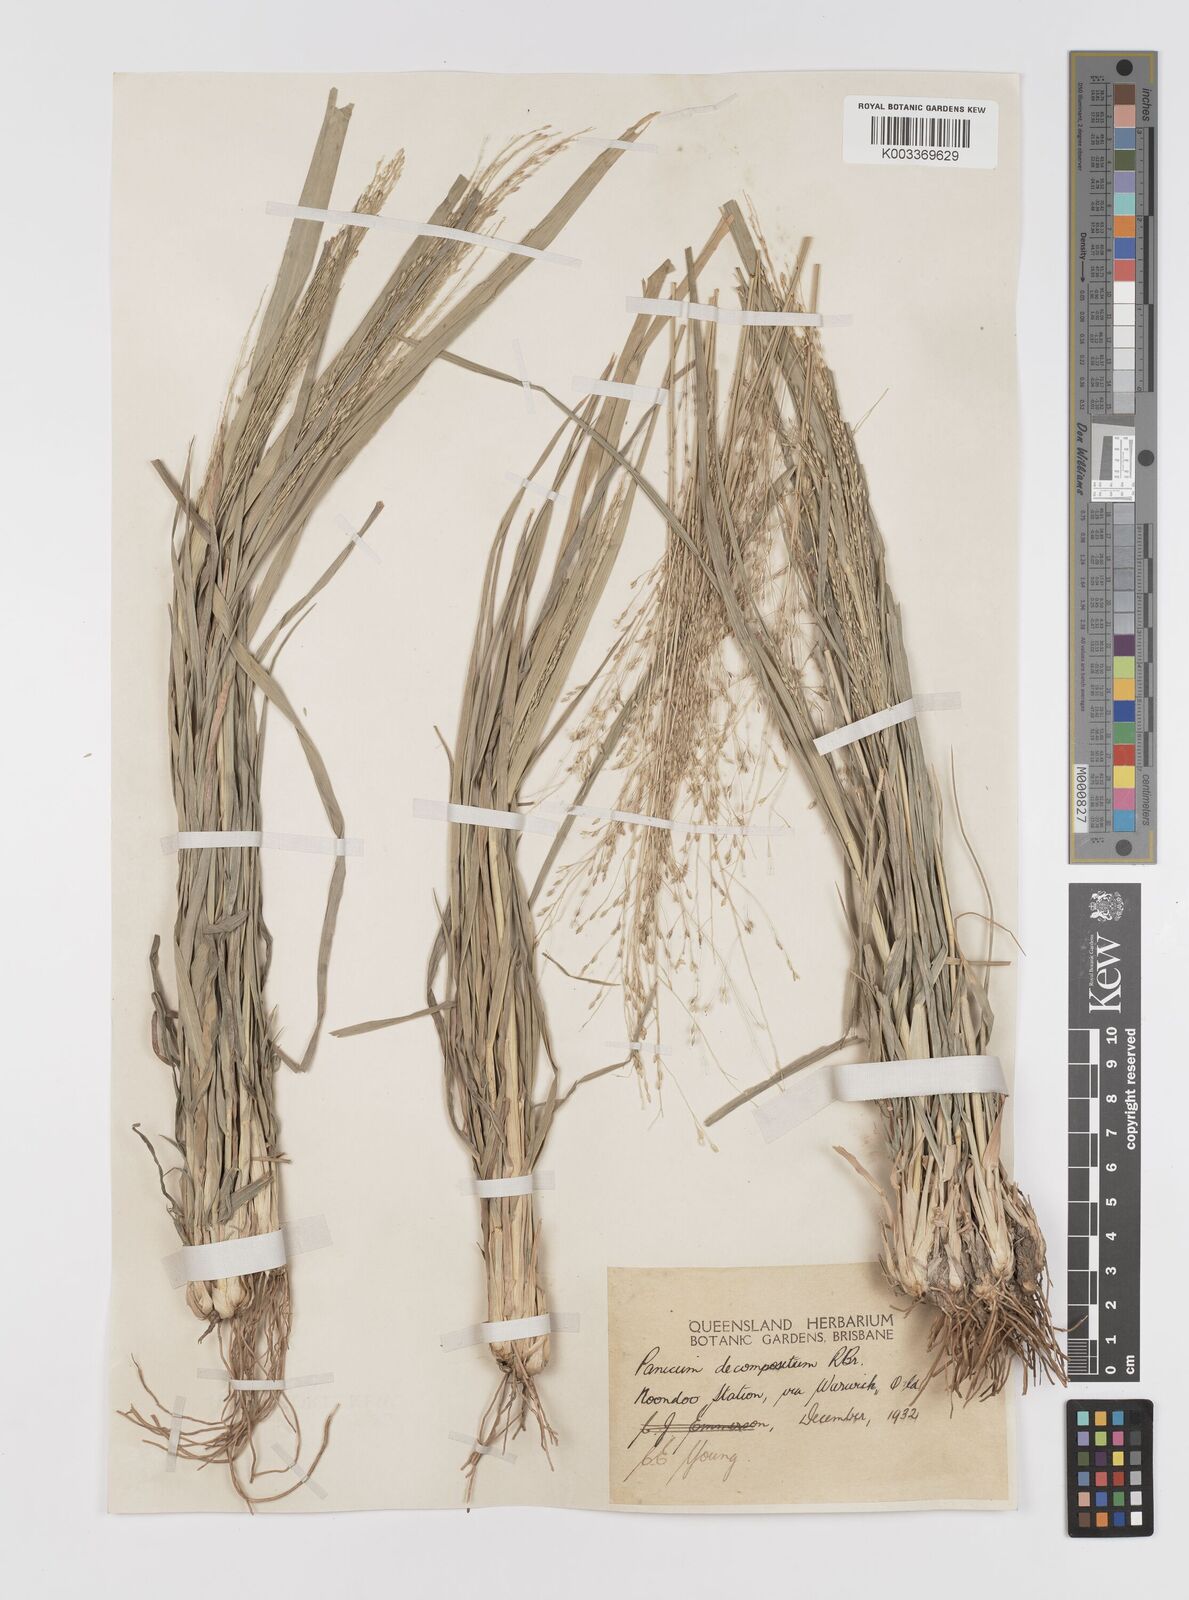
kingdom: Plantae
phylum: Tracheophyta
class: Liliopsida
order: Poales
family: Poaceae
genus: Panicum
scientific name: Panicum decompositum
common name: Australian millet
